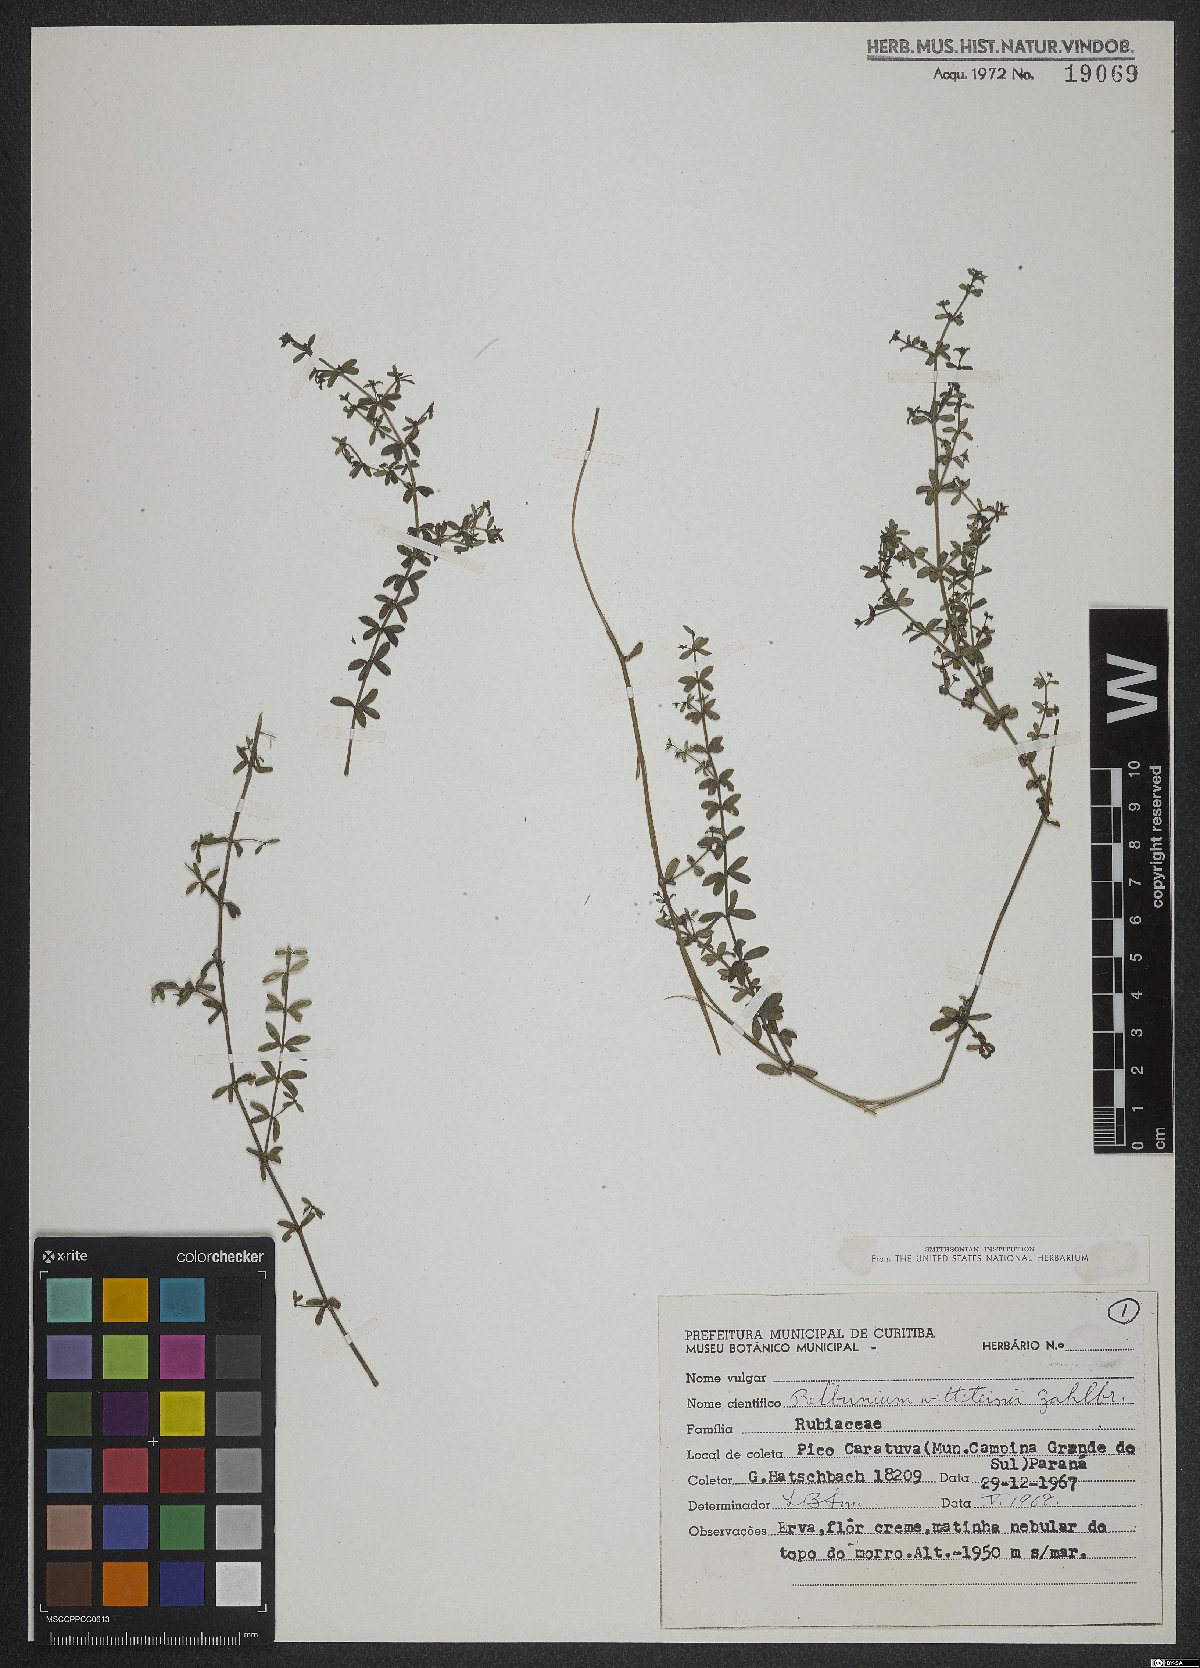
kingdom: Plantae
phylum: Tracheophyta
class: Magnoliopsida
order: Gentianales
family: Rubiaceae
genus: Galium
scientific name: Galium hypocarpium
